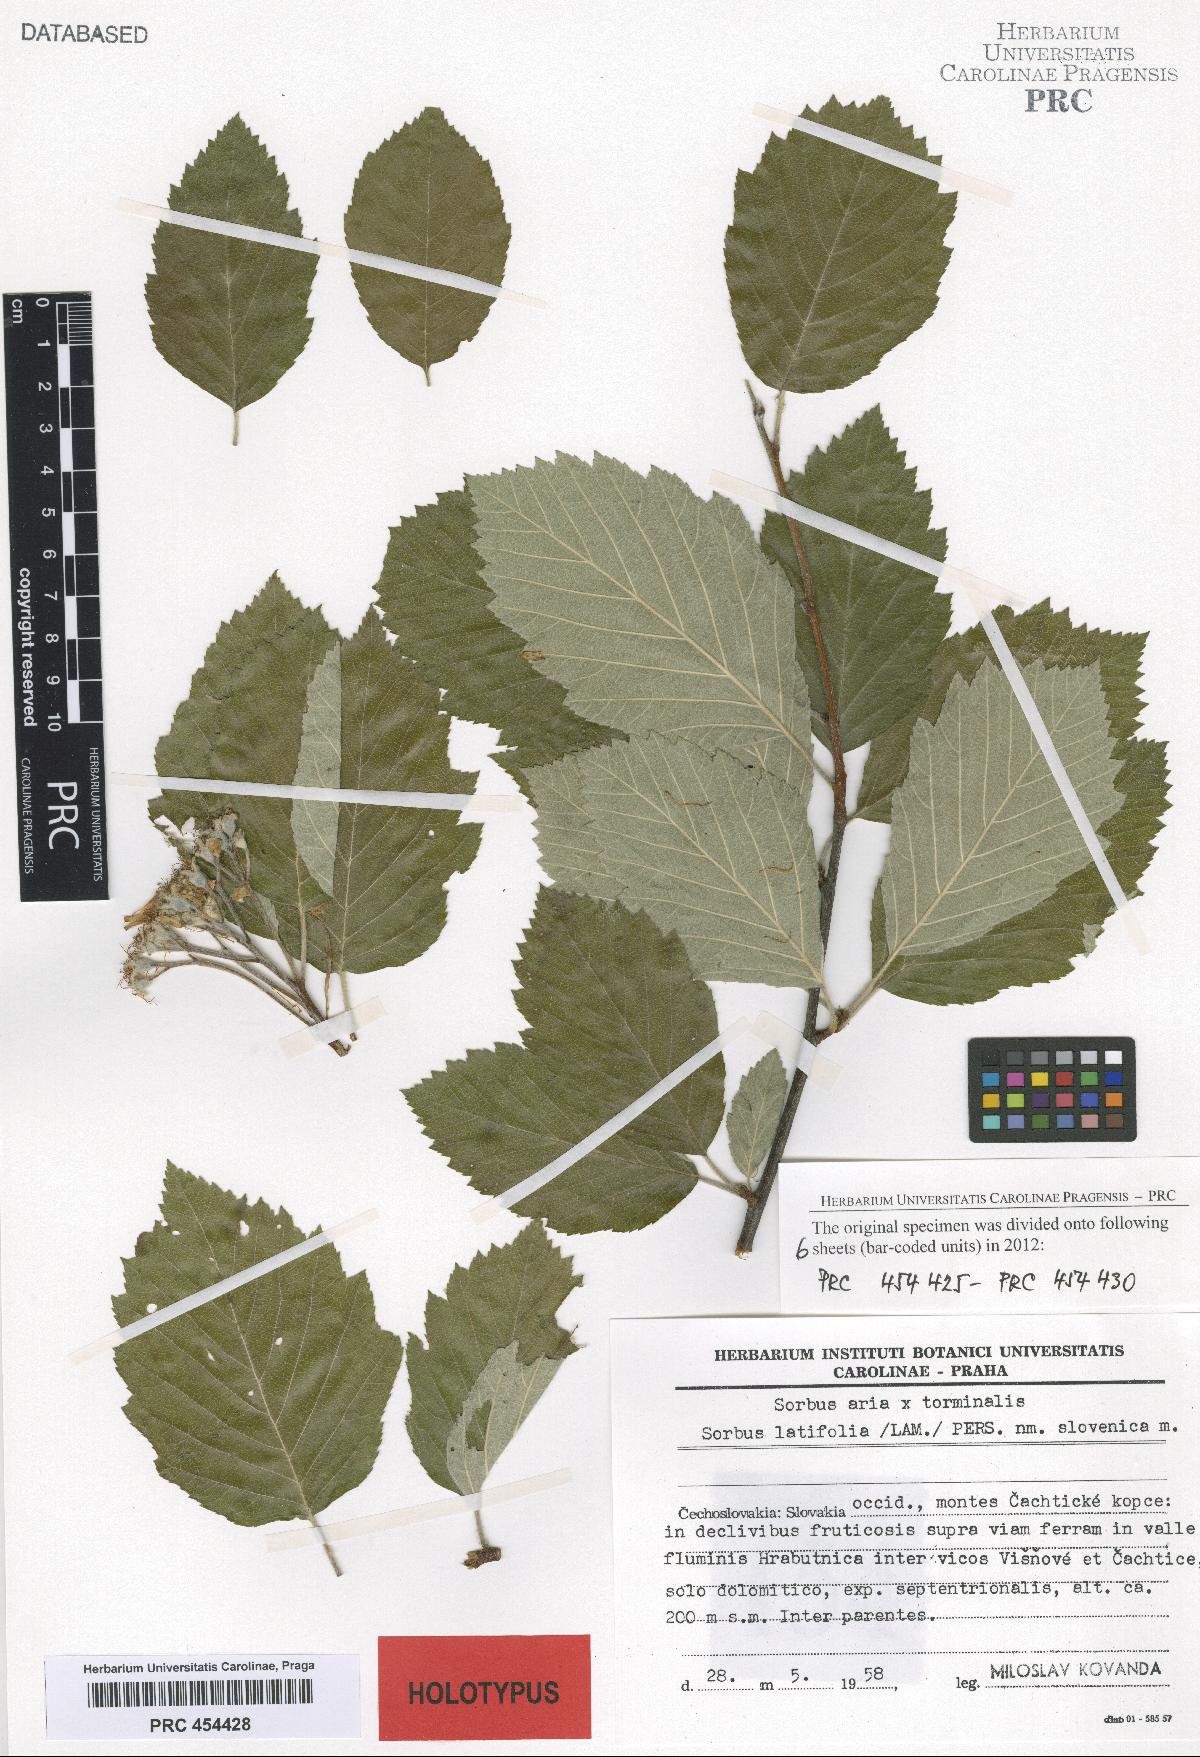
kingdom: Plantae
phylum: Tracheophyta
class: Magnoliopsida
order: Rosales
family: Rosaceae
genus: Karpatiosorbus
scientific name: Karpatiosorbus slovenica
